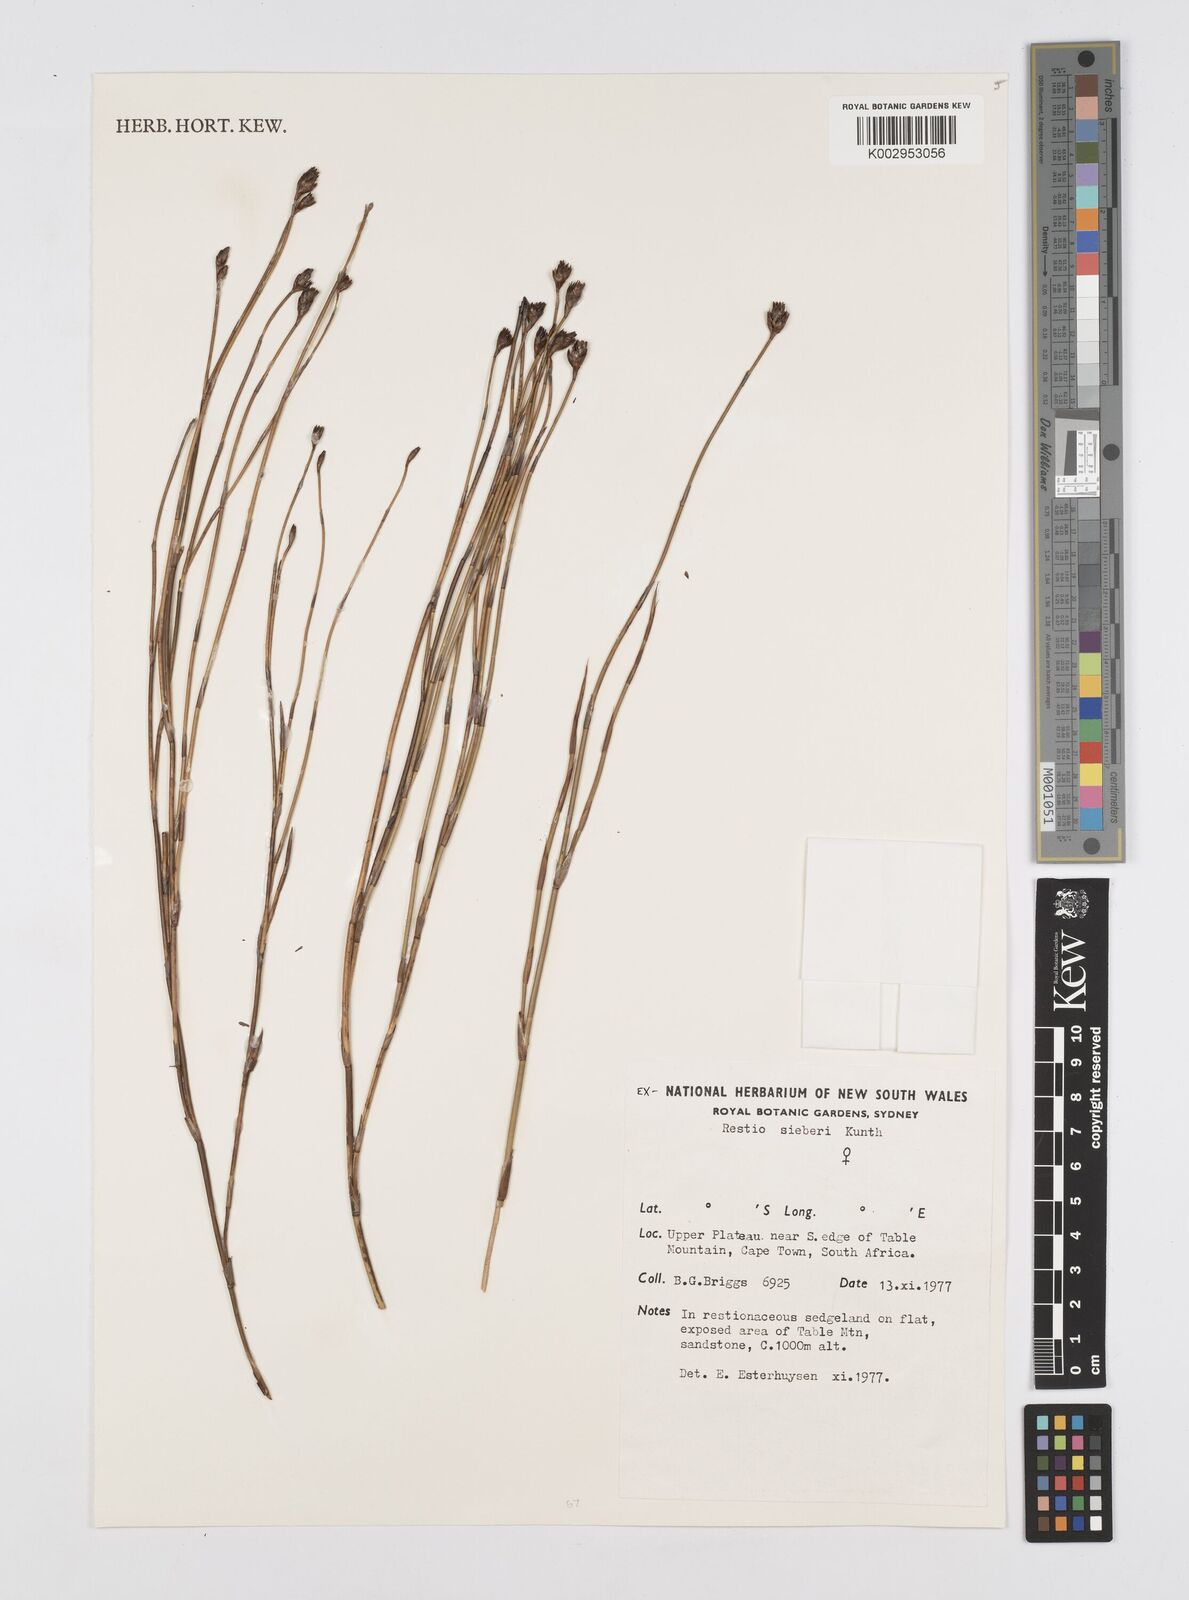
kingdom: Plantae
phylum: Tracheophyta
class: Liliopsida
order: Poales
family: Restionaceae
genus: Restio
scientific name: Restio sieberi
